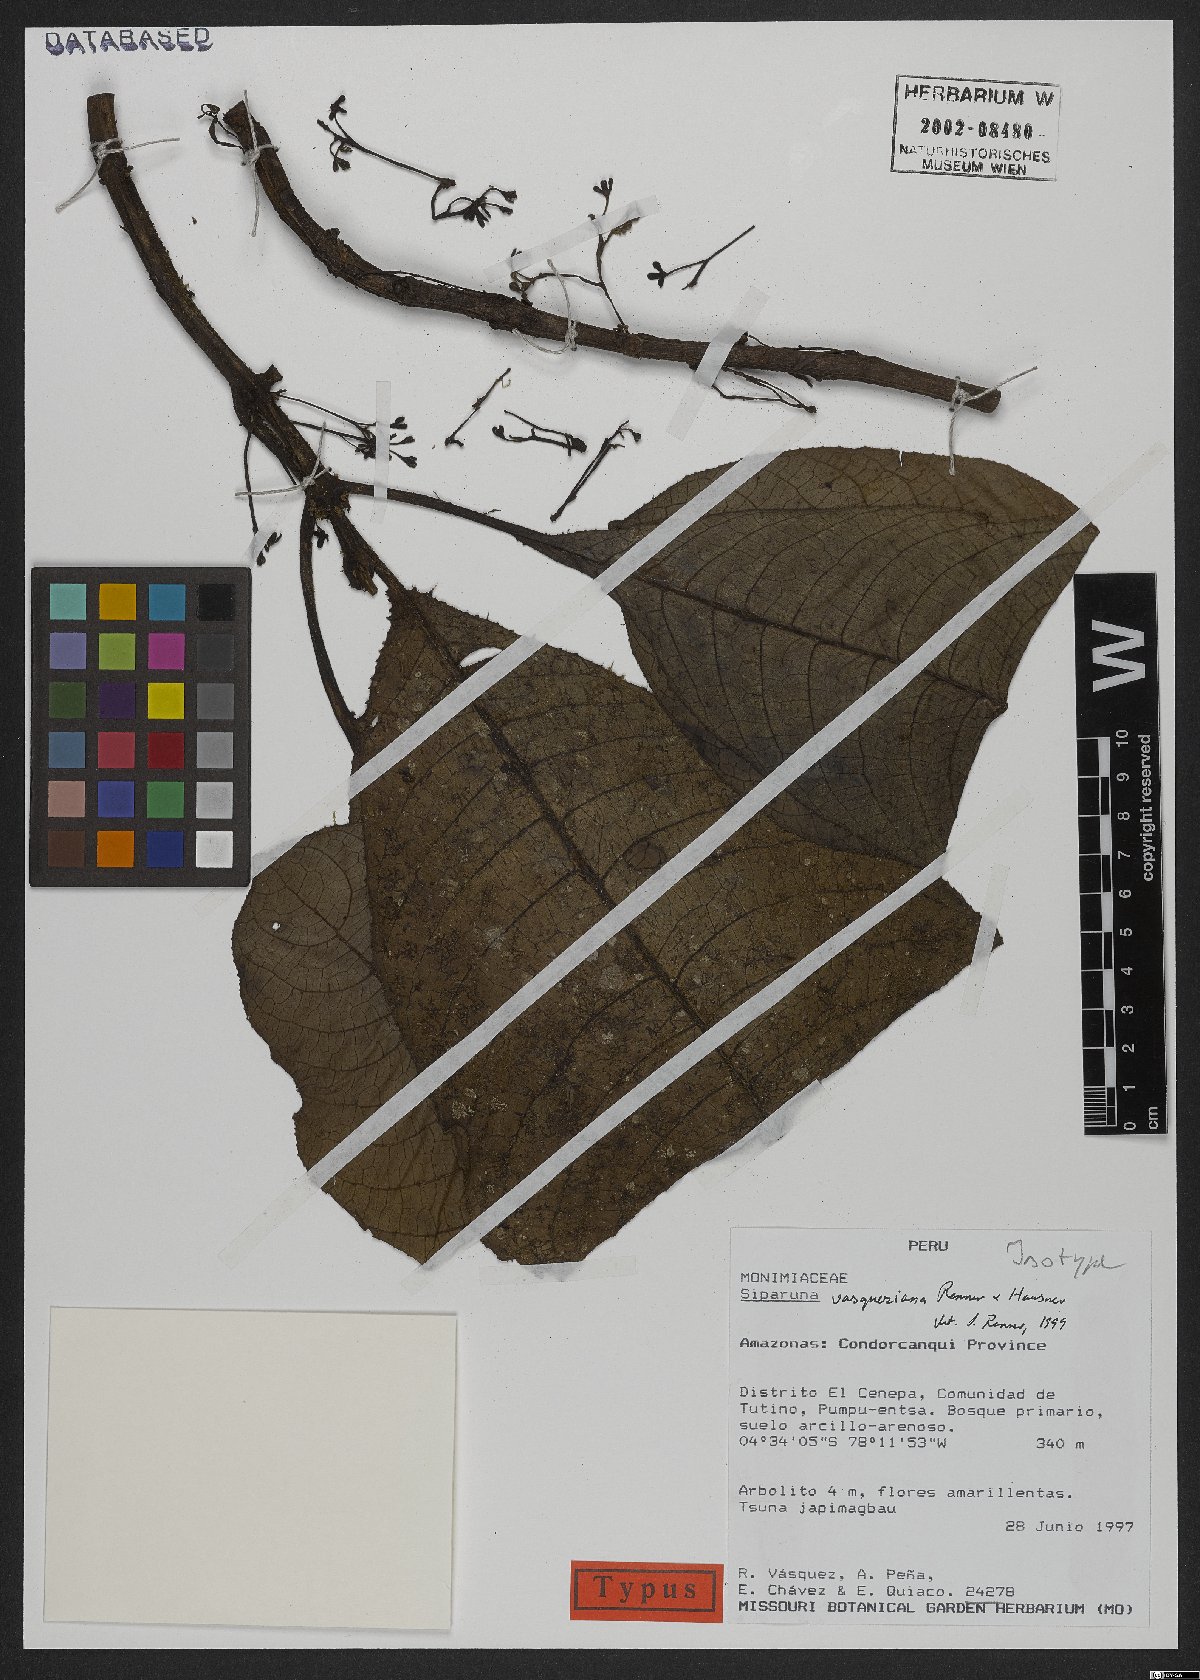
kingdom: Plantae
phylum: Tracheophyta
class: Magnoliopsida
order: Laurales
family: Siparunaceae
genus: Siparuna
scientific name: Siparuna vasqueziana
